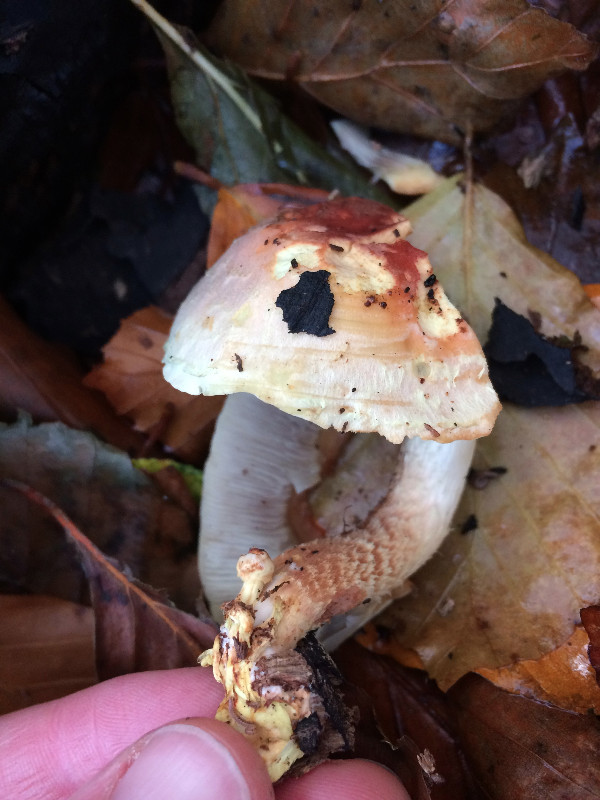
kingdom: Fungi
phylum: Basidiomycota
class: Agaricomycetes
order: Agaricales
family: Strophariaceae
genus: Hypholoma
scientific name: Hypholoma lateritium
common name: teglrød svovlhat
